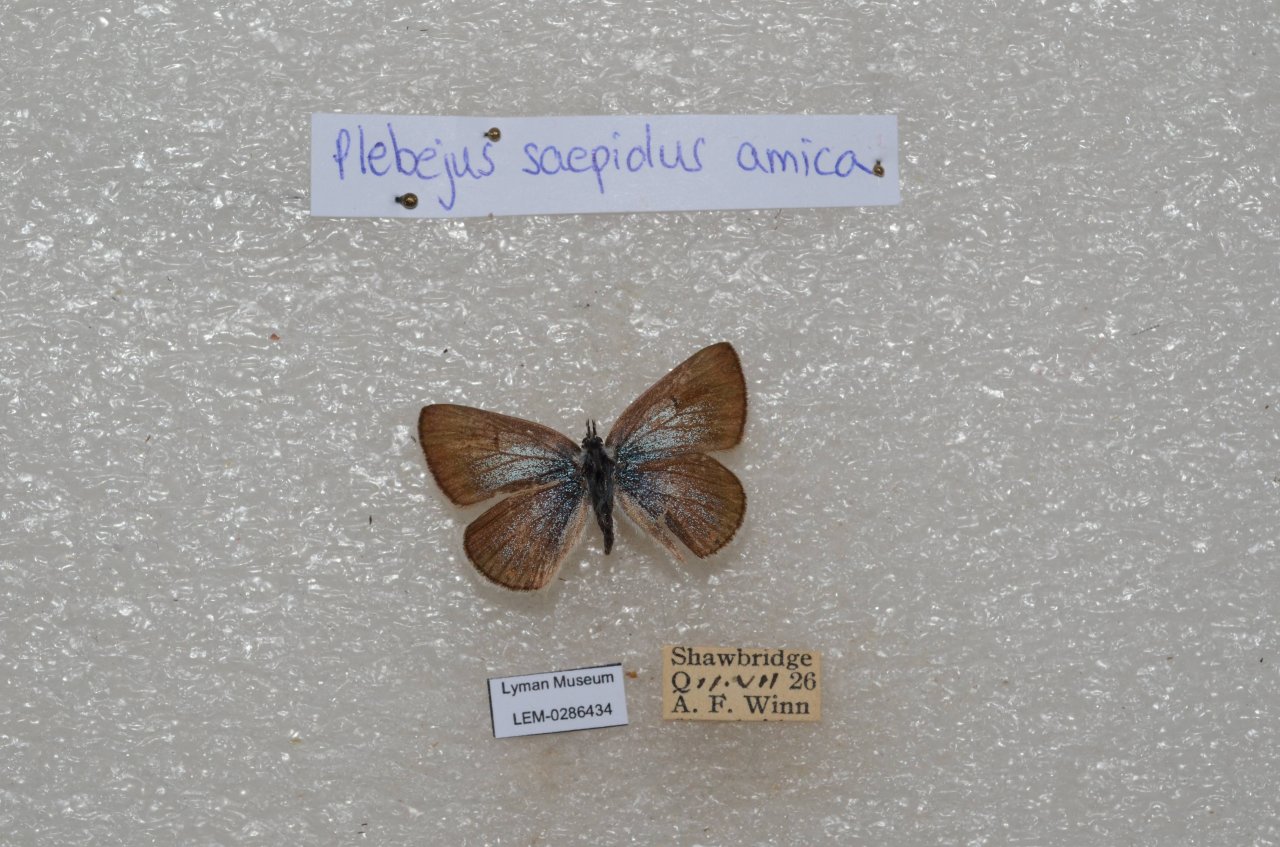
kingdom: Animalia
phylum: Arthropoda
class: Insecta
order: Lepidoptera
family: Lycaenidae
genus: Plebejus
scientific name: Plebejus saepiolus
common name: Greenish Blue
